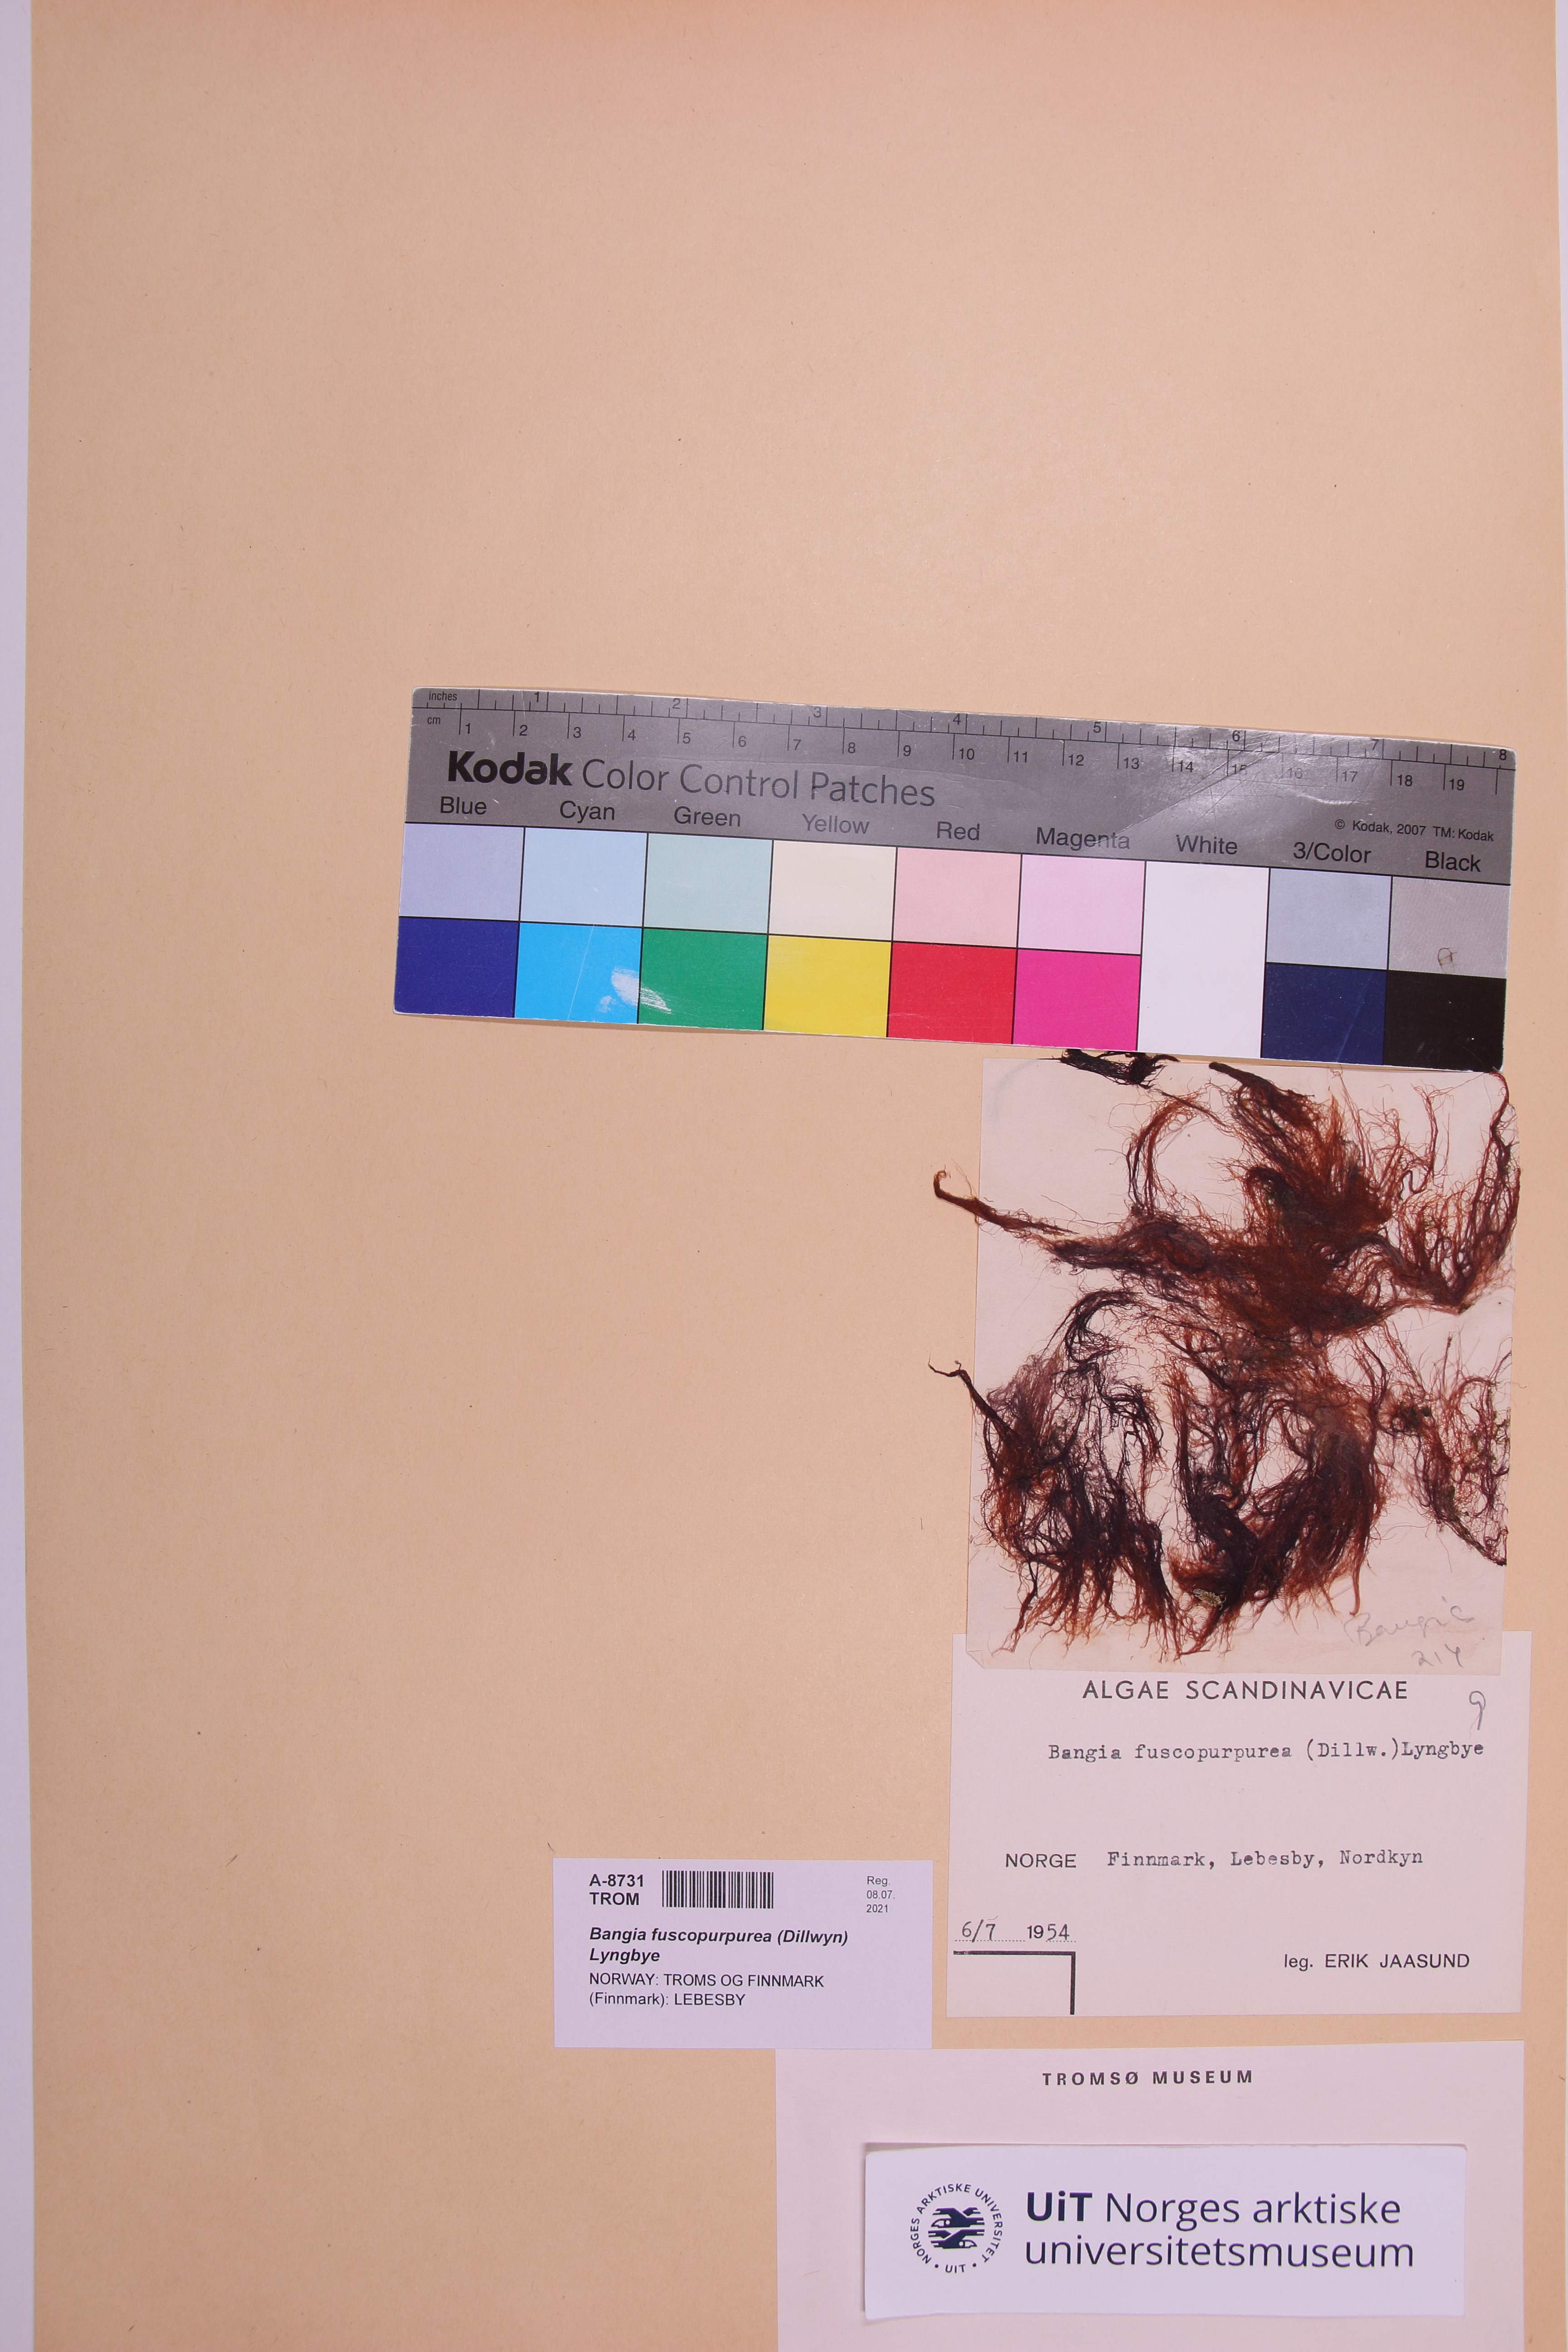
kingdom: Plantae
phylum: Rhodophyta
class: Bangiophyceae
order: Bangiales
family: Bangiaceae
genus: Bangia
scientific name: Bangia fuscopurpurea
